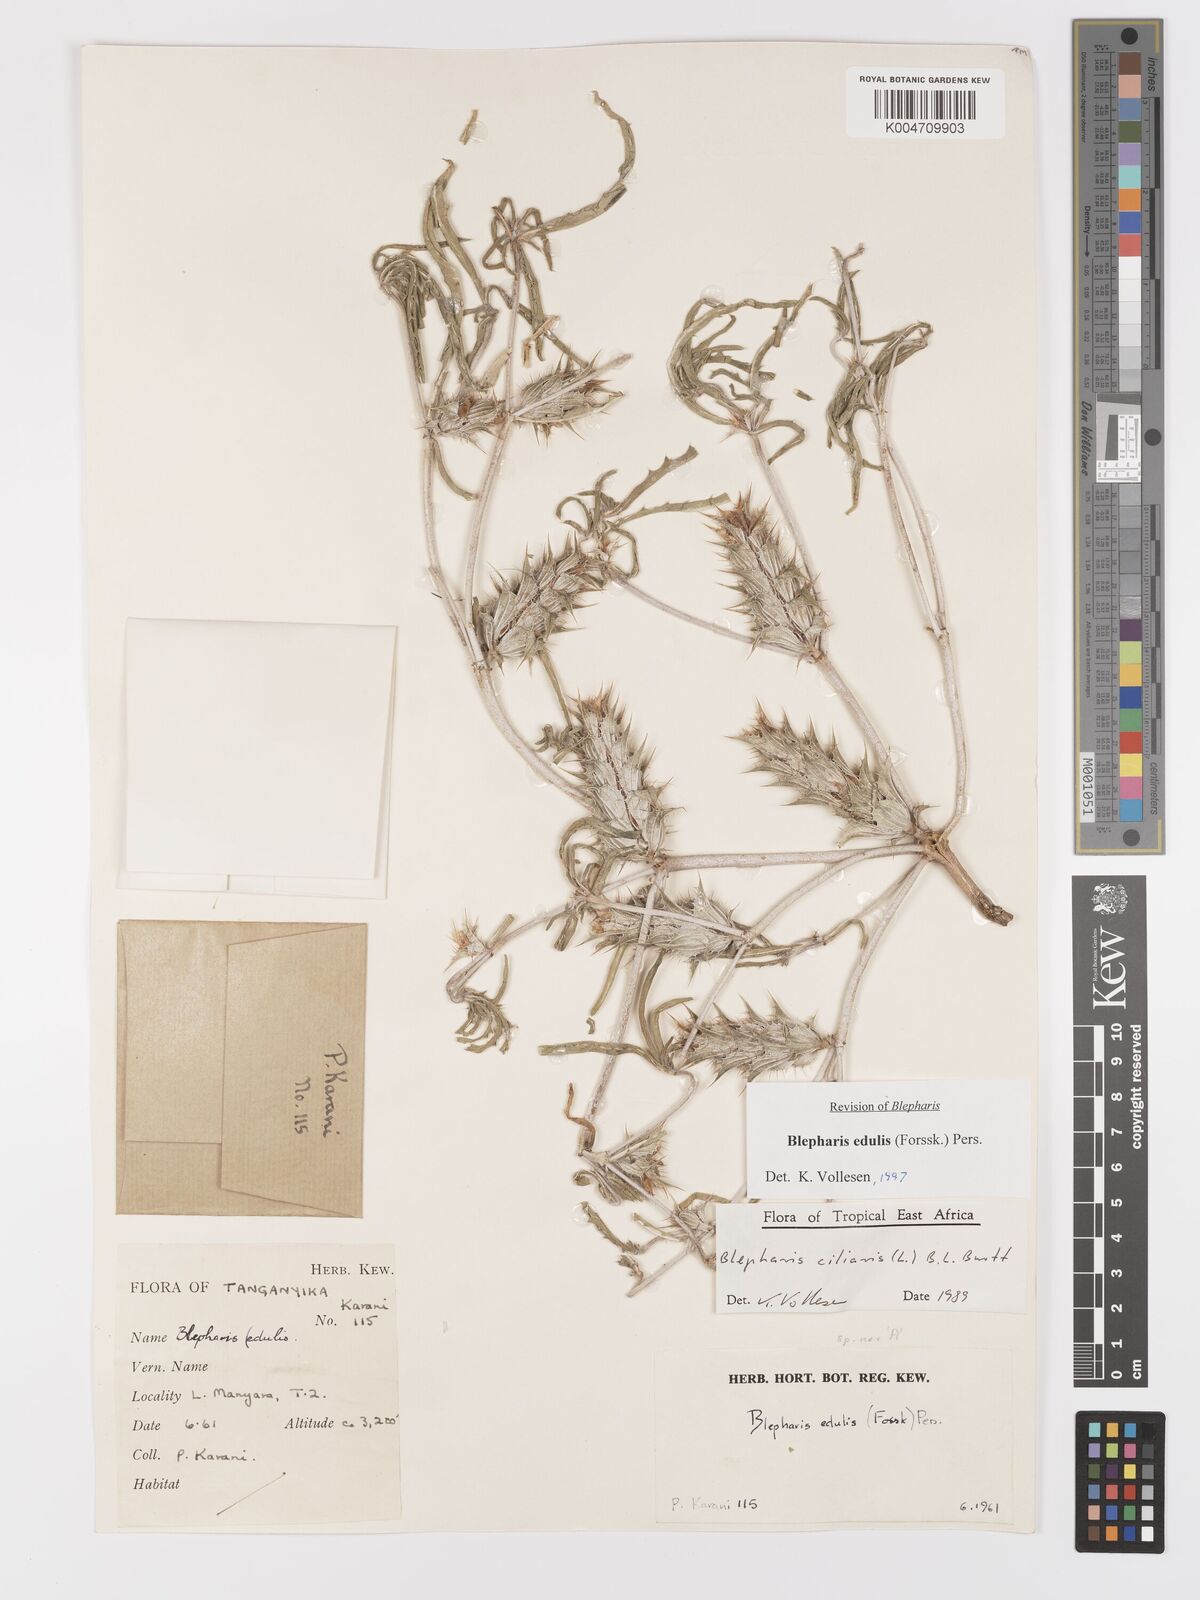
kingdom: Plantae
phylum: Tracheophyta
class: Magnoliopsida
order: Lamiales
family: Acanthaceae
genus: Blepharis
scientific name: Blepharis edulis
